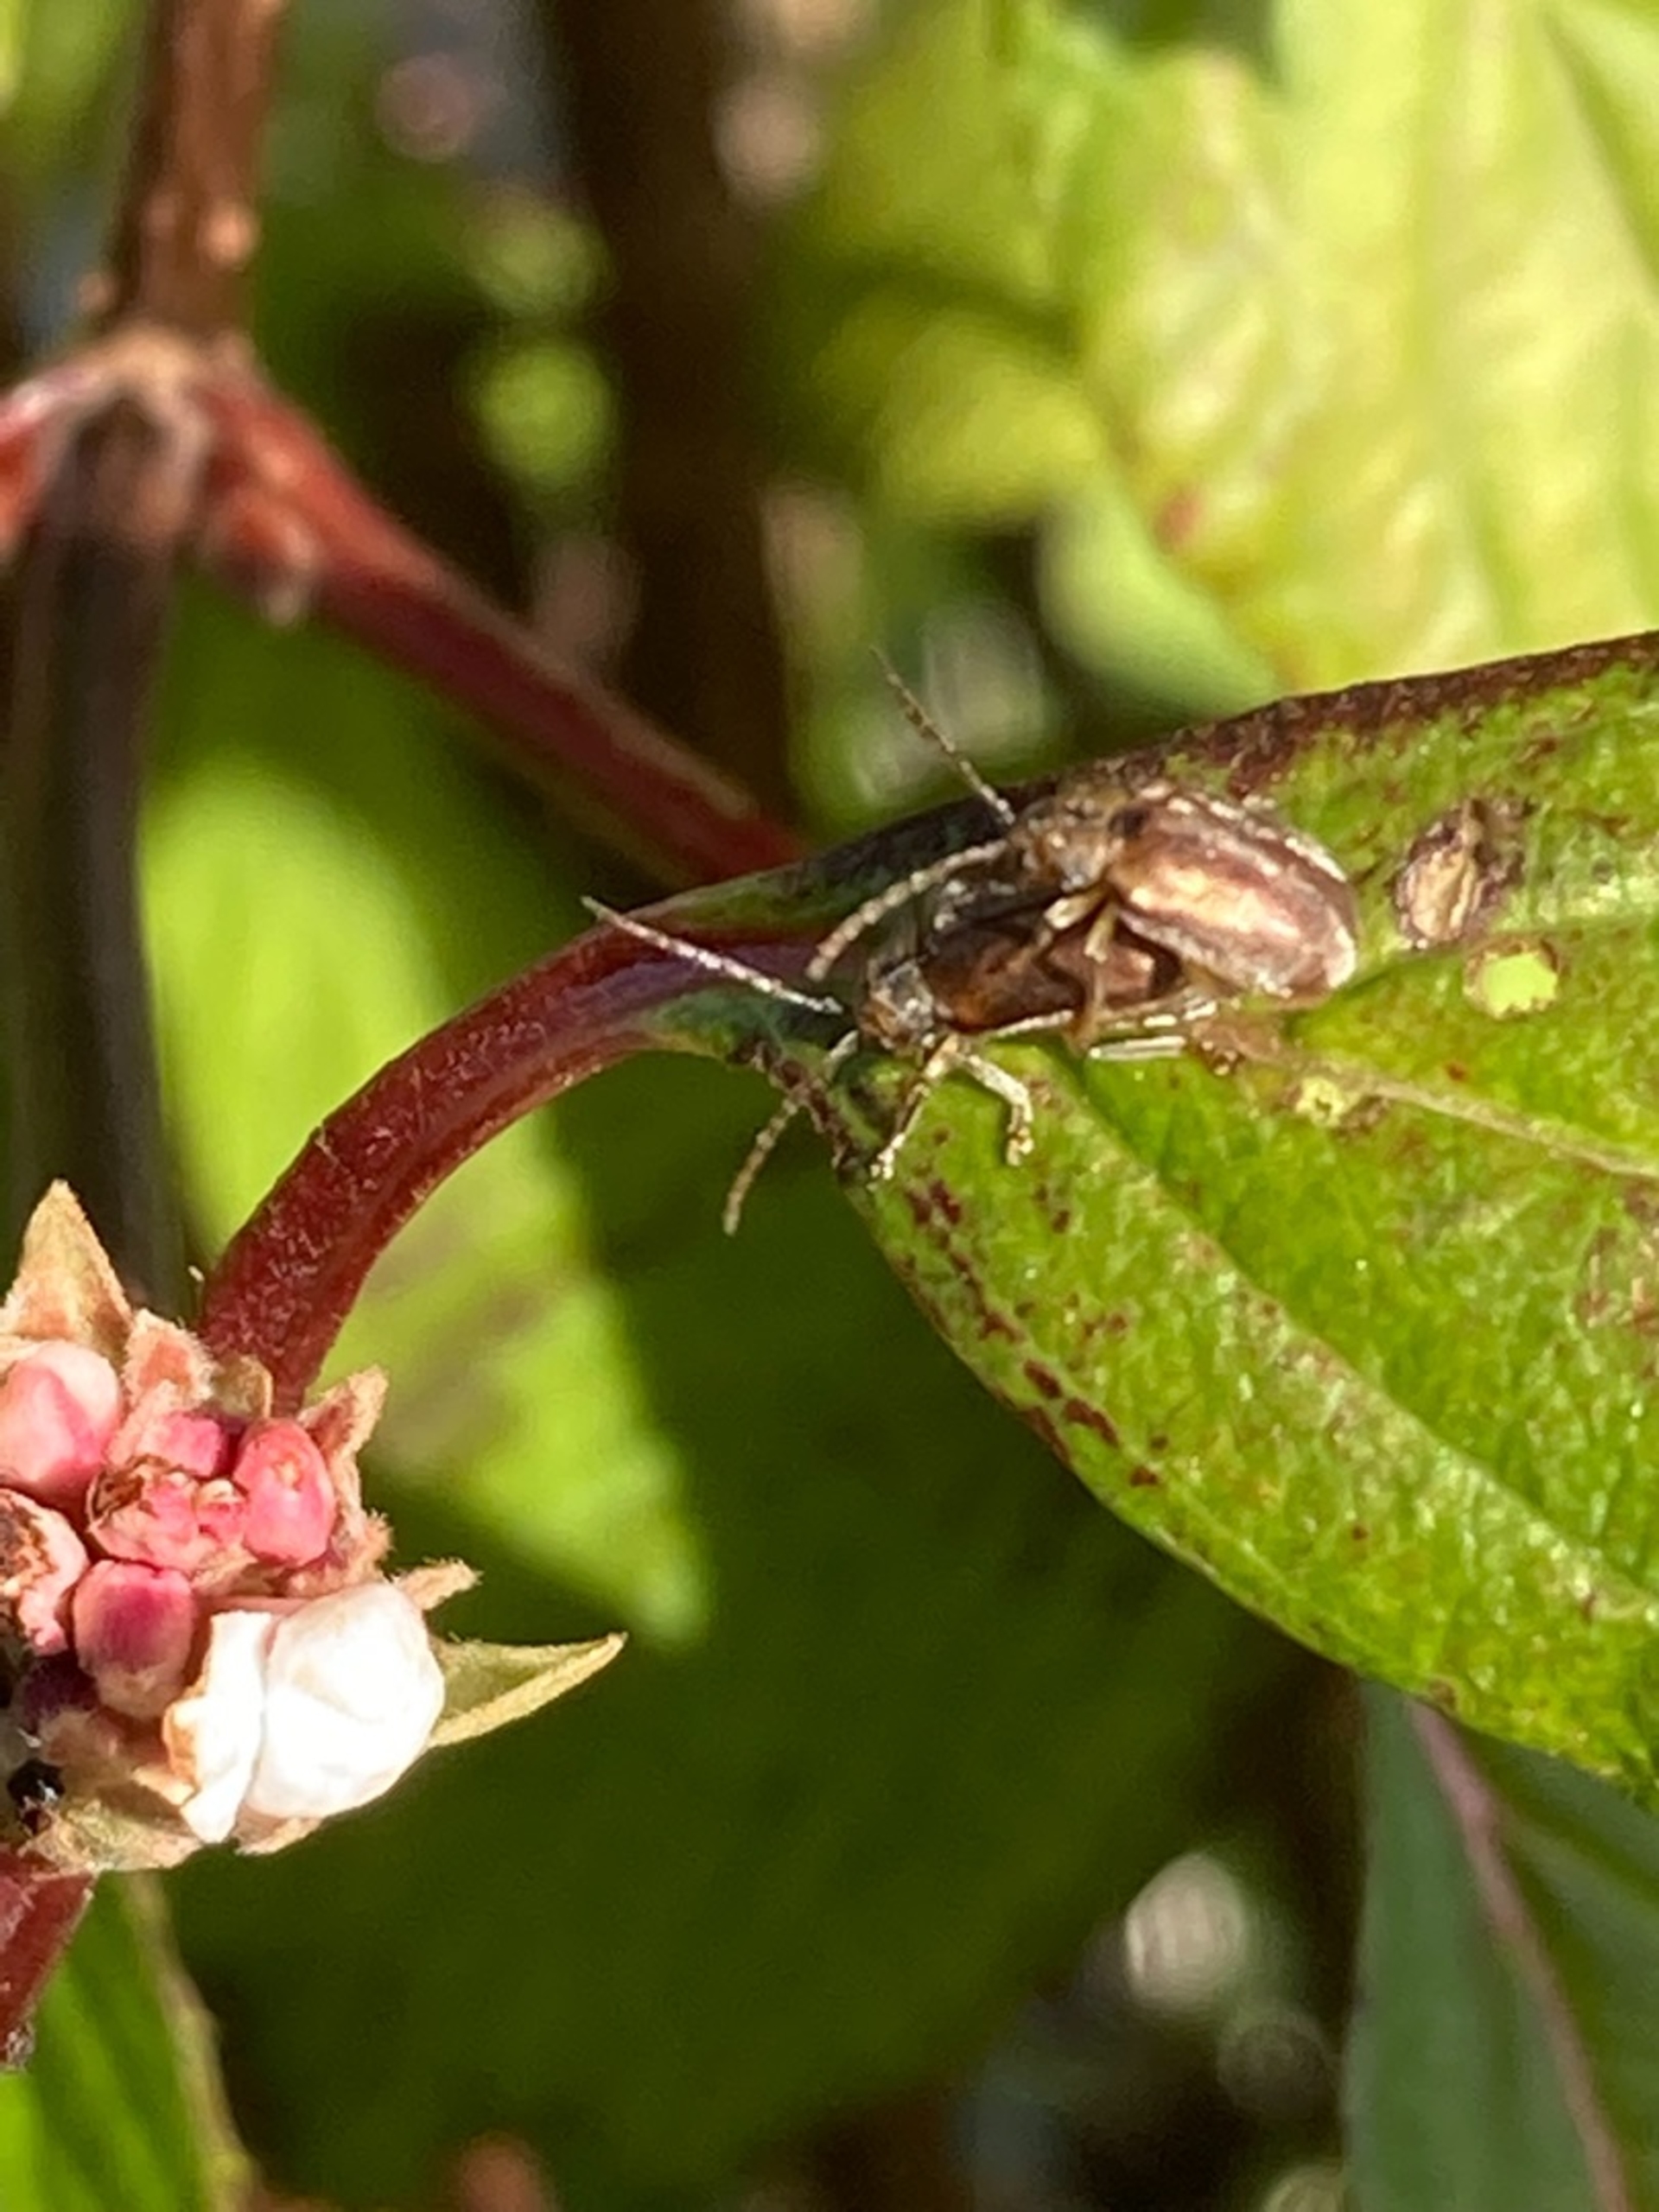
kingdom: Animalia
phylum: Arthropoda
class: Insecta
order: Coleoptera
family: Chrysomelidae
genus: Pyrrhalta
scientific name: Pyrrhalta viburni
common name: Kvalkvedbladbille
